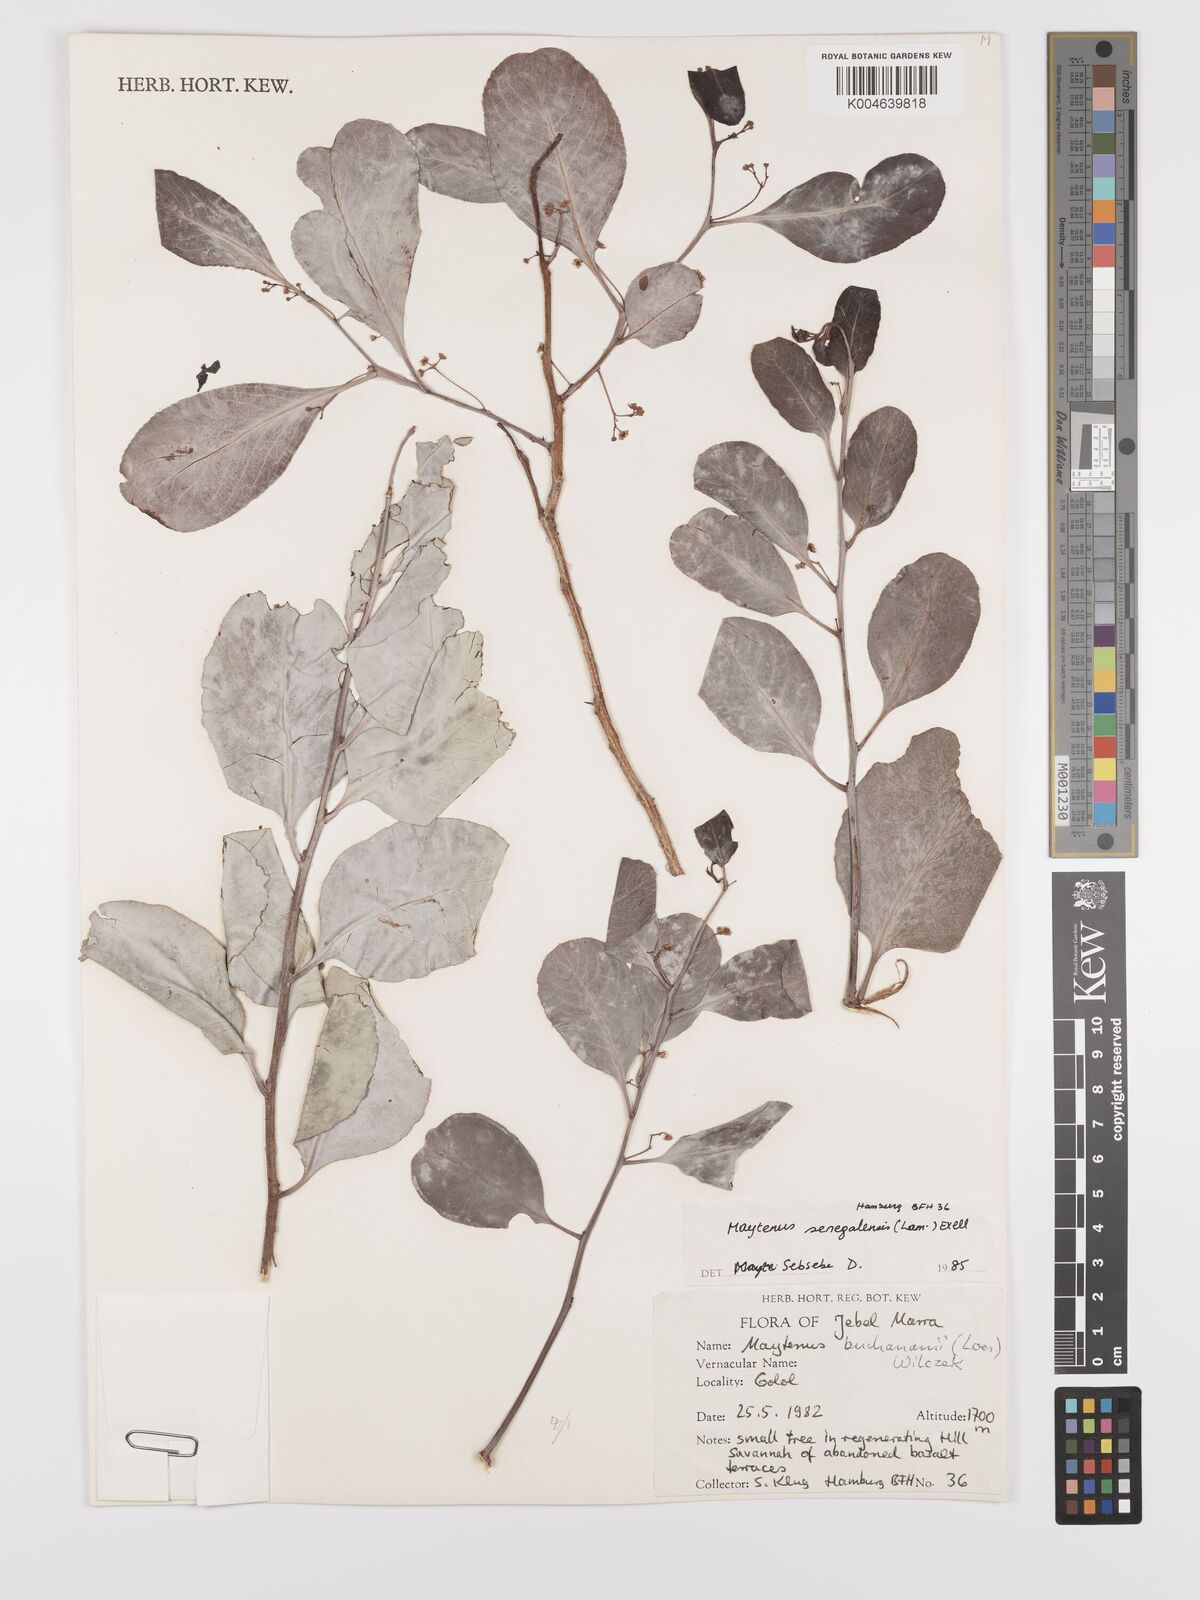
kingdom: Plantae
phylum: Tracheophyta
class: Magnoliopsida
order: Celastrales
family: Celastraceae
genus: Gymnosporia
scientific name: Gymnosporia senegalensis
